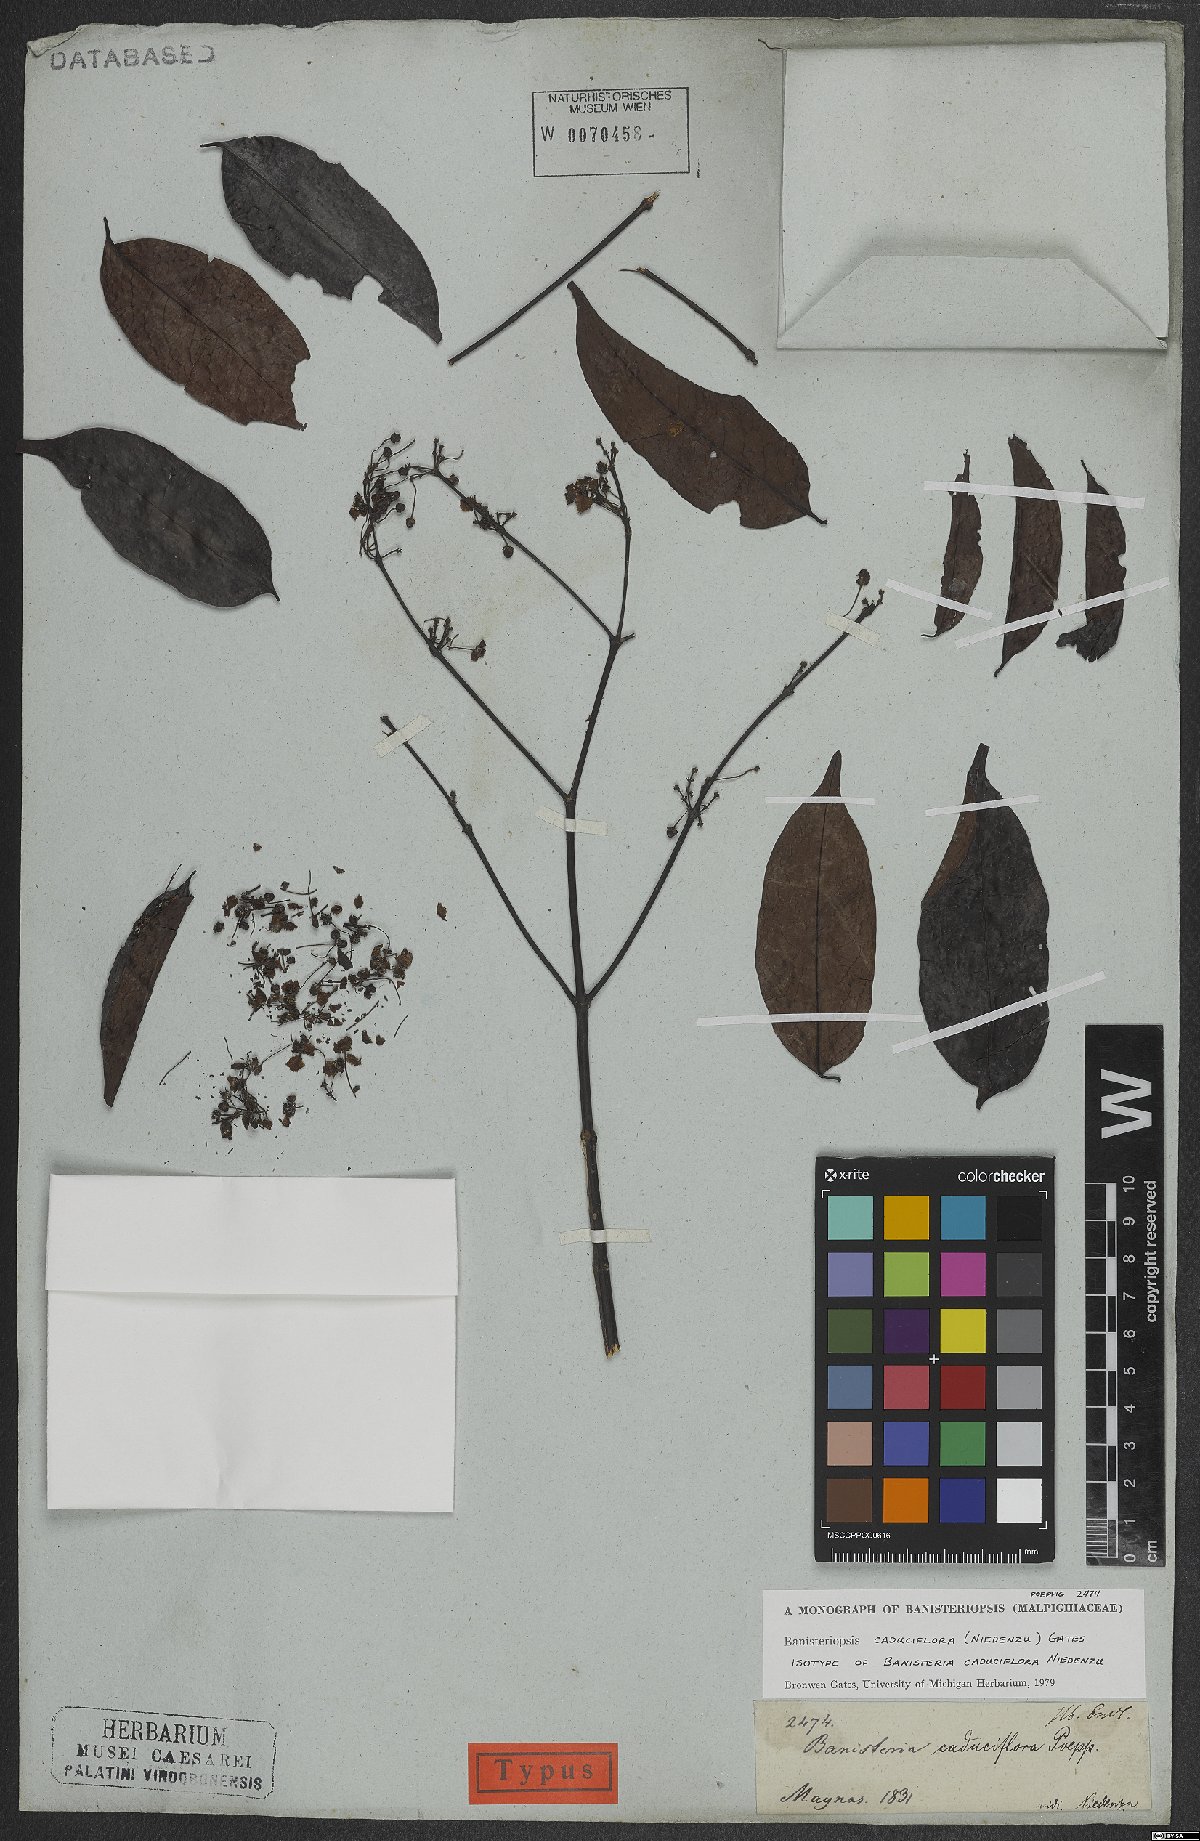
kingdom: Plantae
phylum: Tracheophyta
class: Magnoliopsida
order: Malpighiales
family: Malpighiaceae
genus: Diplopterys
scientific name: Diplopterys caduciflora
